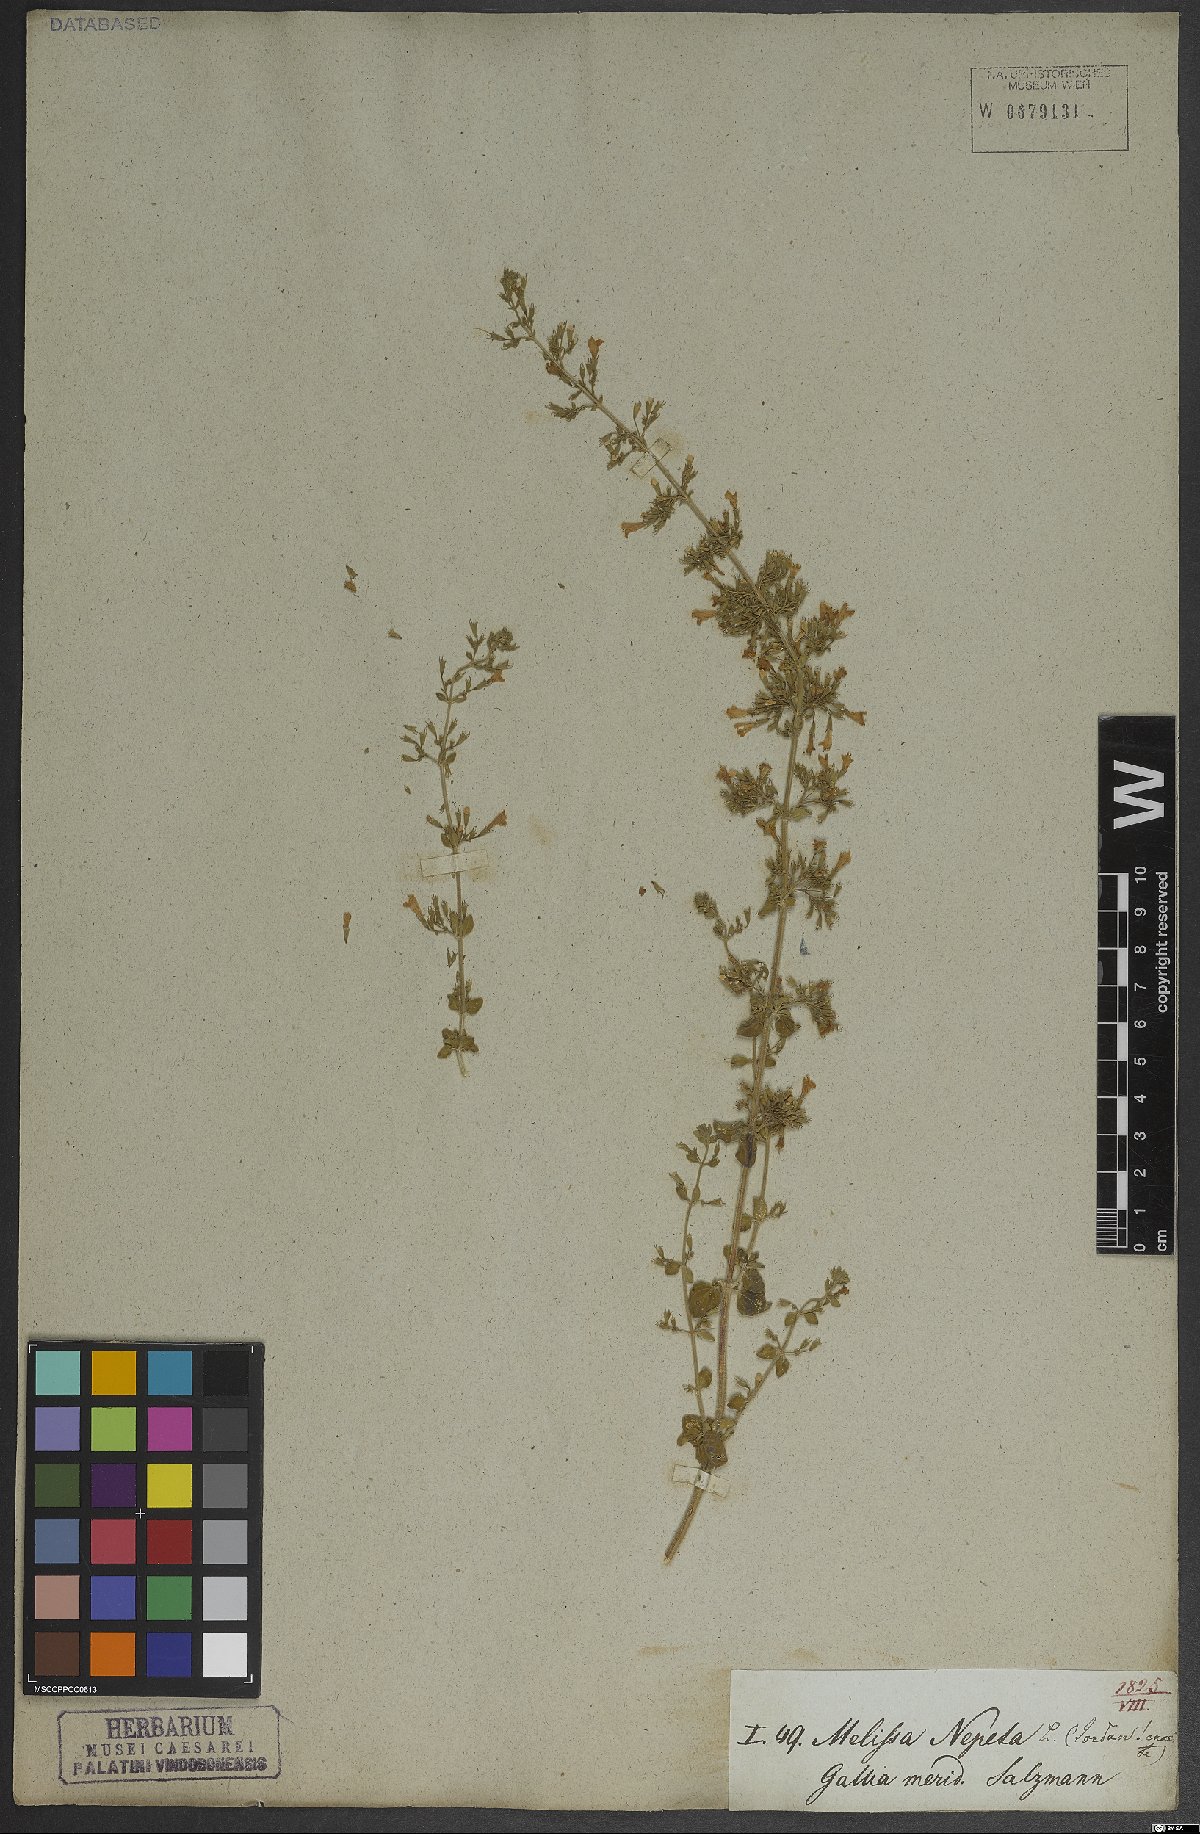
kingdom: Plantae
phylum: Tracheophyta
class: Magnoliopsida
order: Lamiales
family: Lamiaceae
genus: Clinopodium
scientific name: Clinopodium nepeta
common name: Lesser calamint
